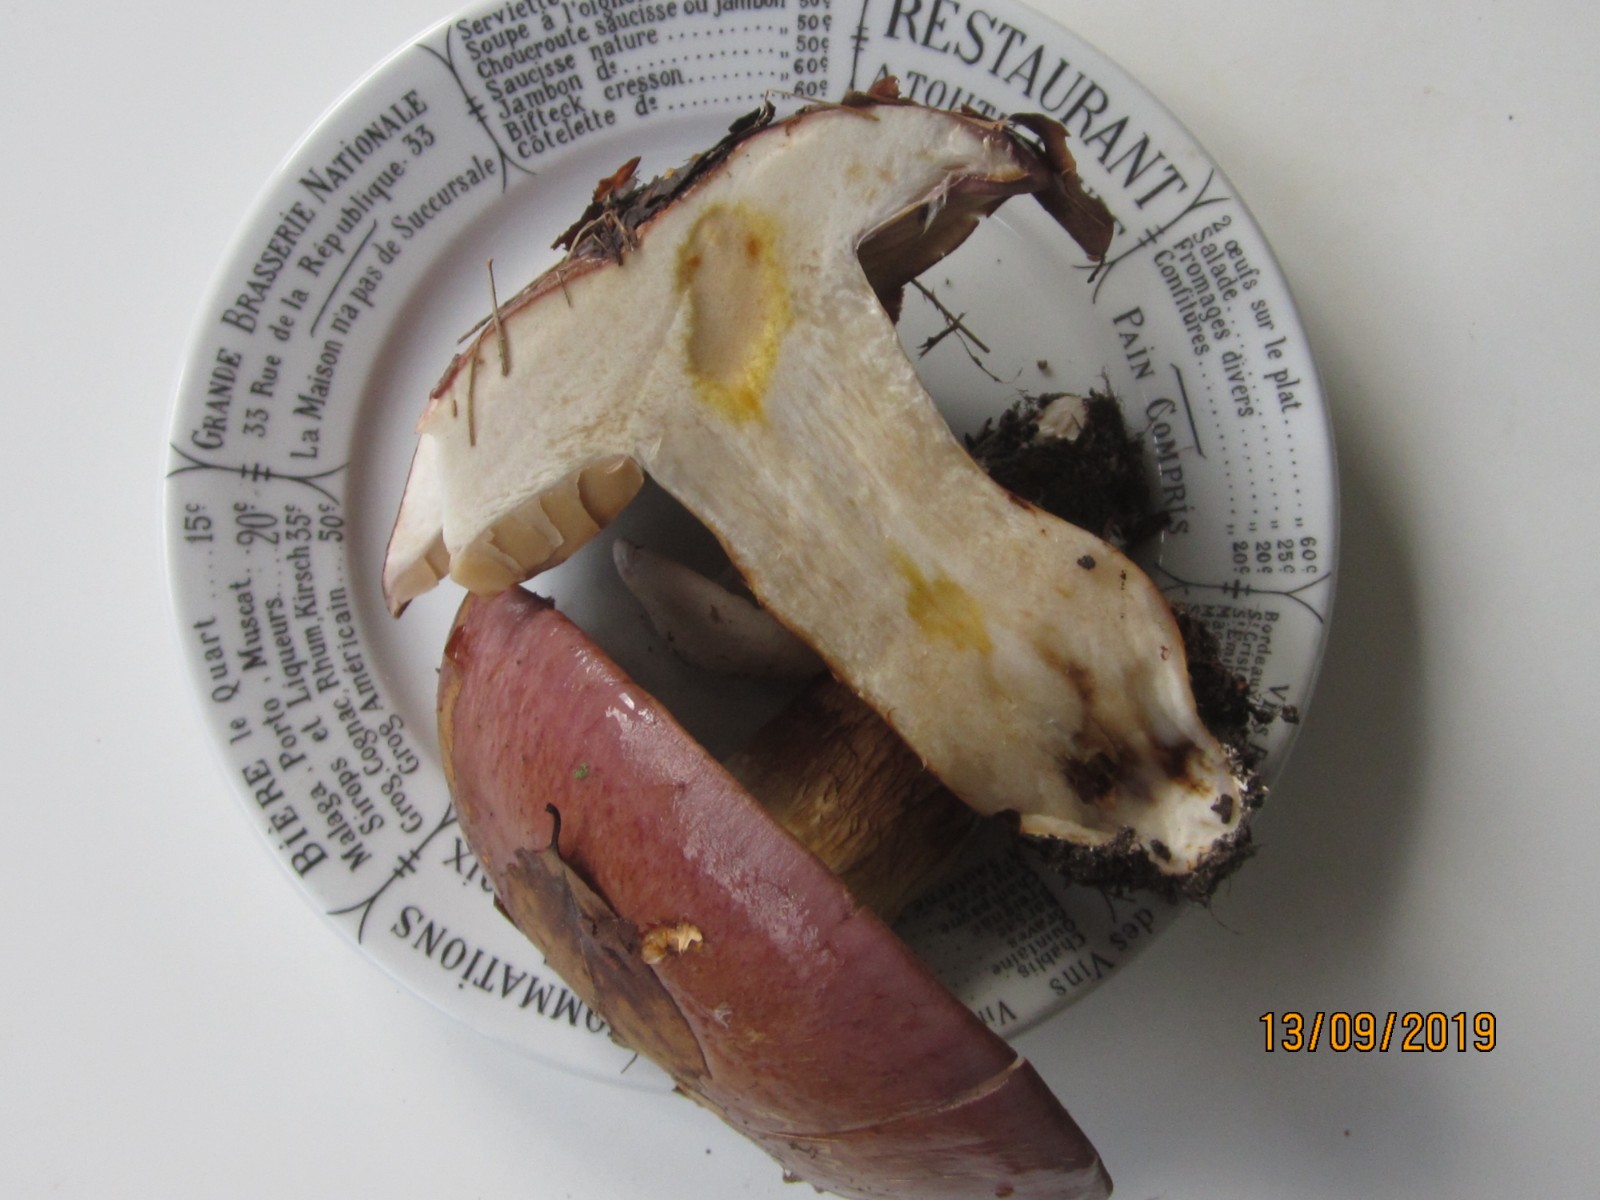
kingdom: Fungi
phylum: Basidiomycota
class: Agaricomycetes
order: Agaricales
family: Cortinariaceae
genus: Phlegmacium
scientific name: Phlegmacium balteatocumatile
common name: violettrådet slørhat
